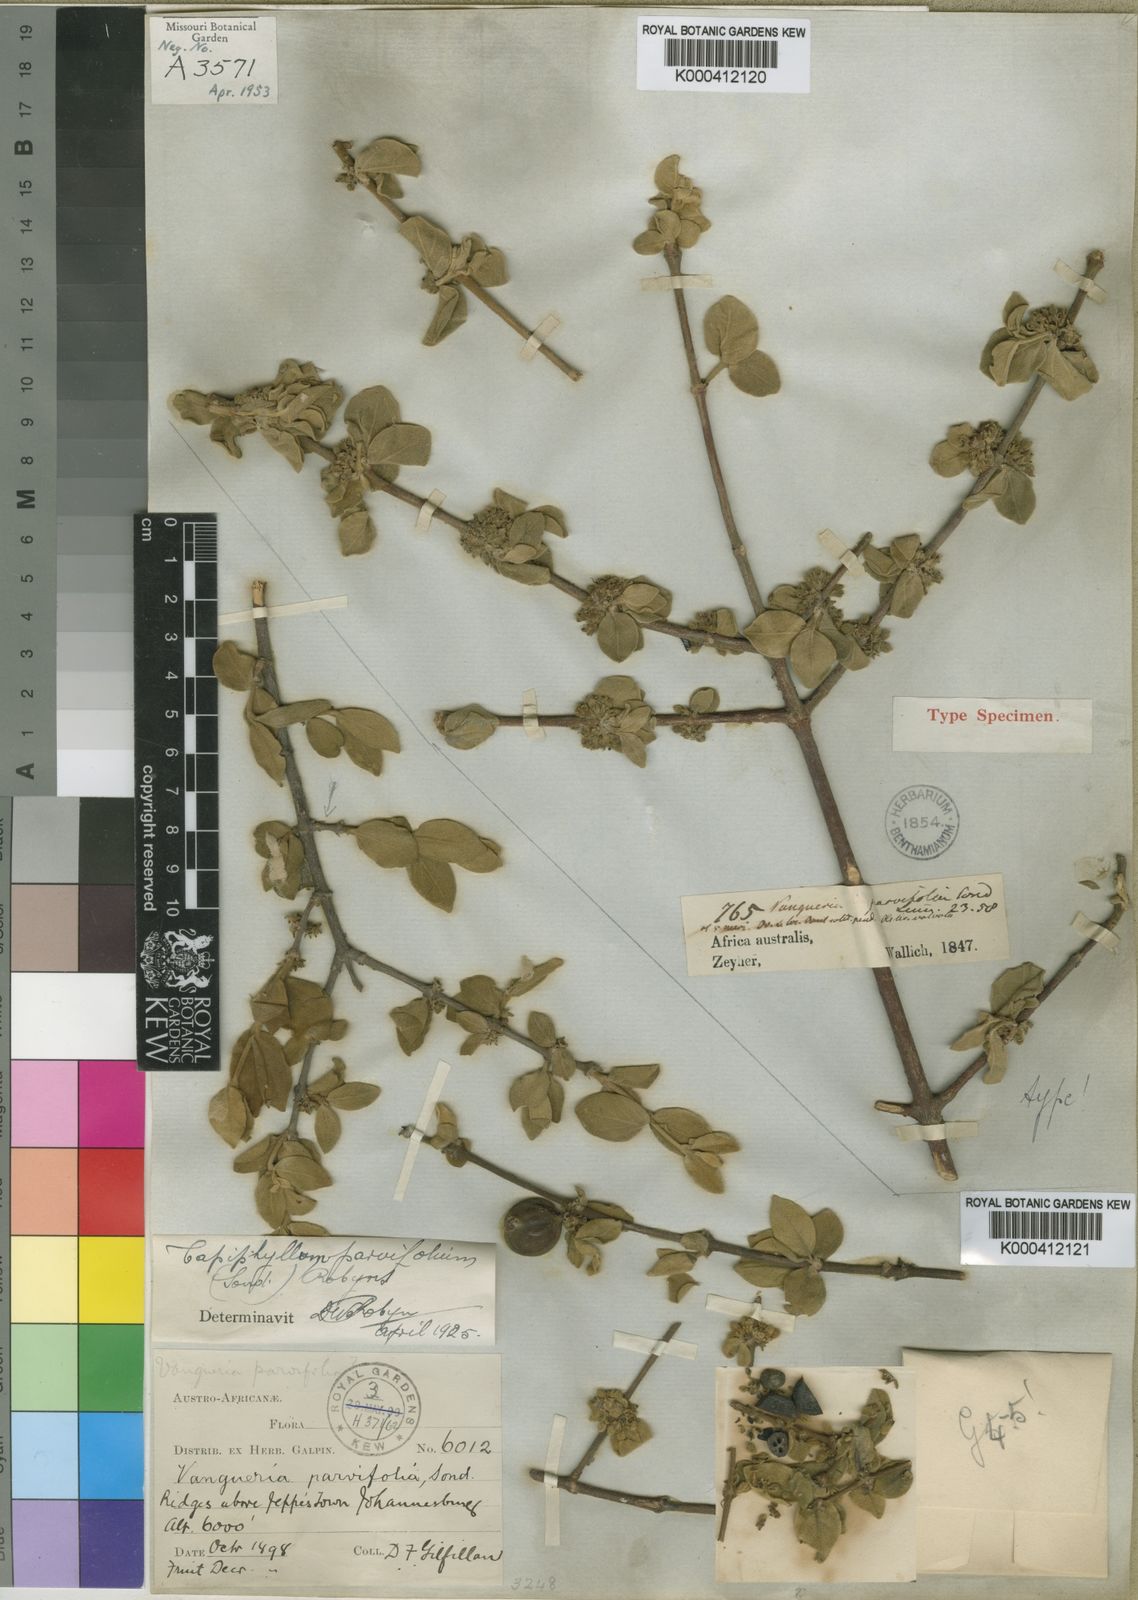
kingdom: Plantae
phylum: Tracheophyta
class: Magnoliopsida
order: Gentianales
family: Rubiaceae
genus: Vangueria
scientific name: Vangueria parvifolia
